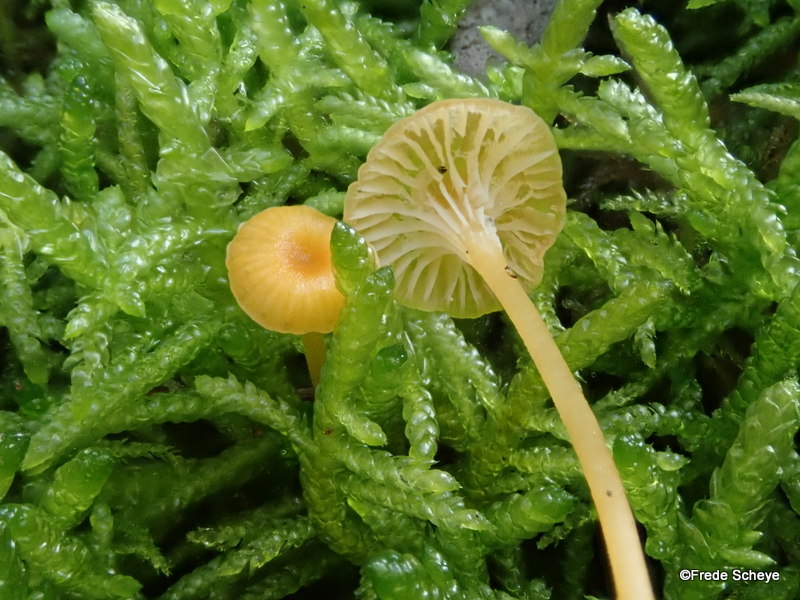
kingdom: Fungi
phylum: Basidiomycota
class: Agaricomycetes
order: Hymenochaetales
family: Rickenellaceae
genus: Rickenella
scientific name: Rickenella fibula
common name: orange mosnavlehat
